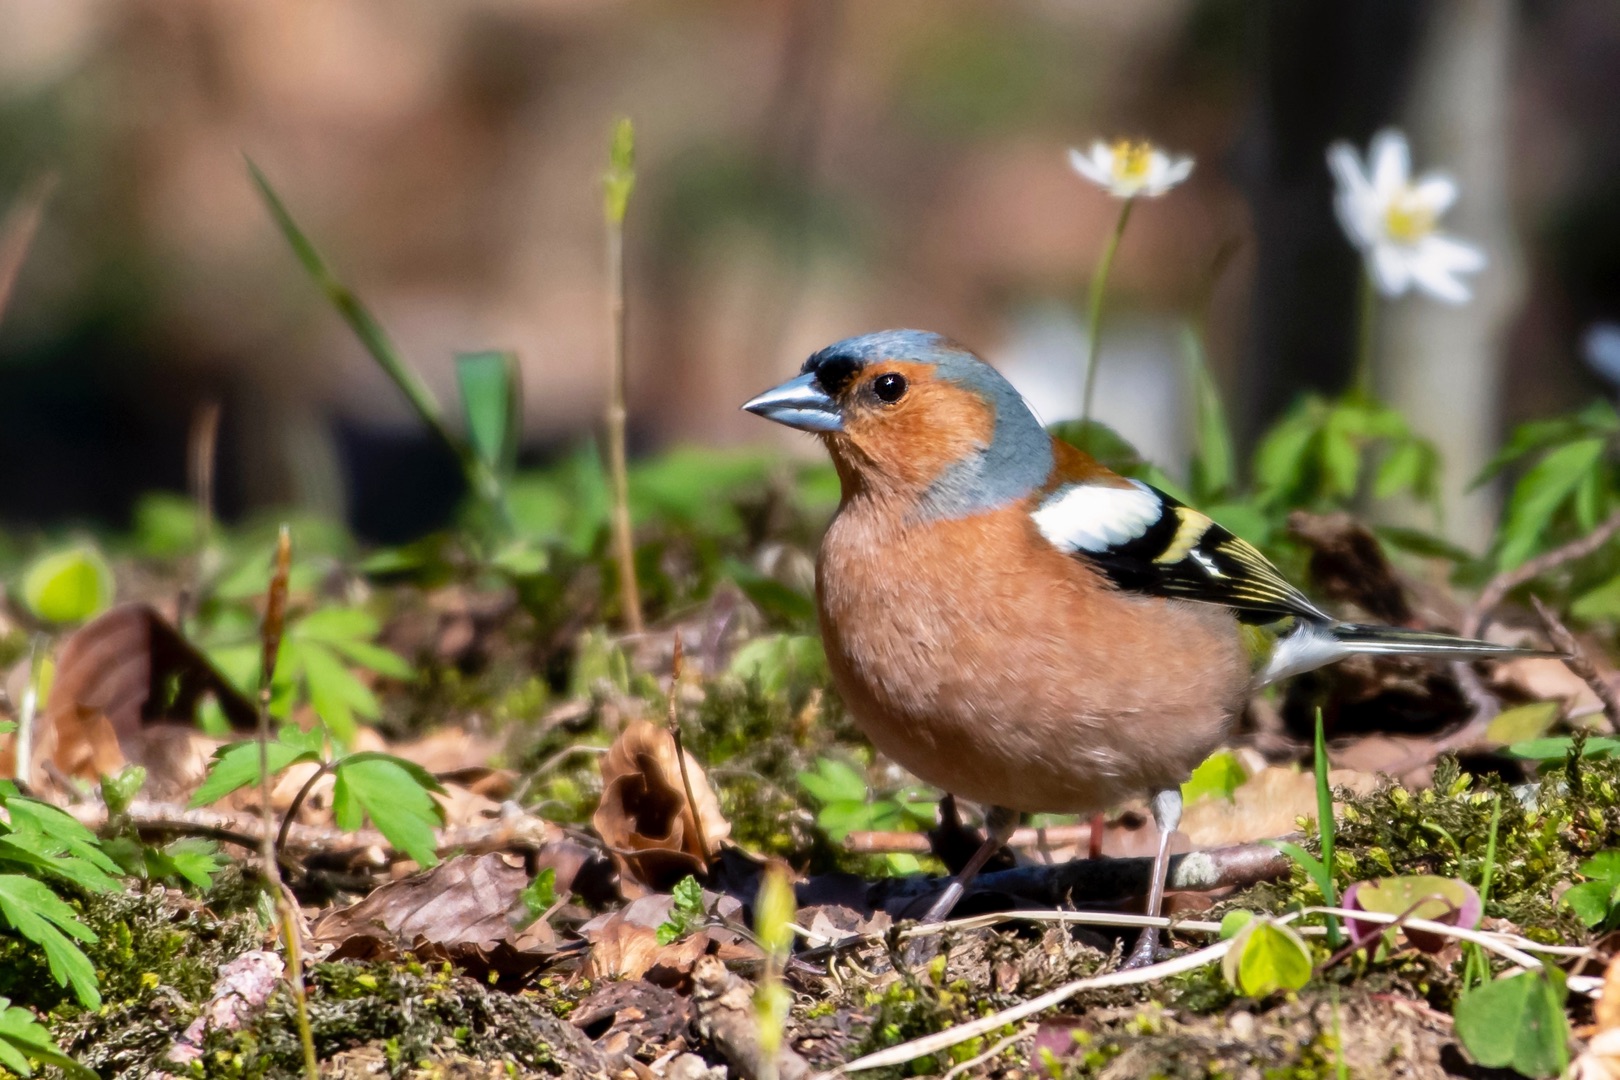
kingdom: Animalia
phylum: Chordata
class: Aves
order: Passeriformes
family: Fringillidae
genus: Fringilla
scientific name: Fringilla coelebs
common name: Bogfinke
